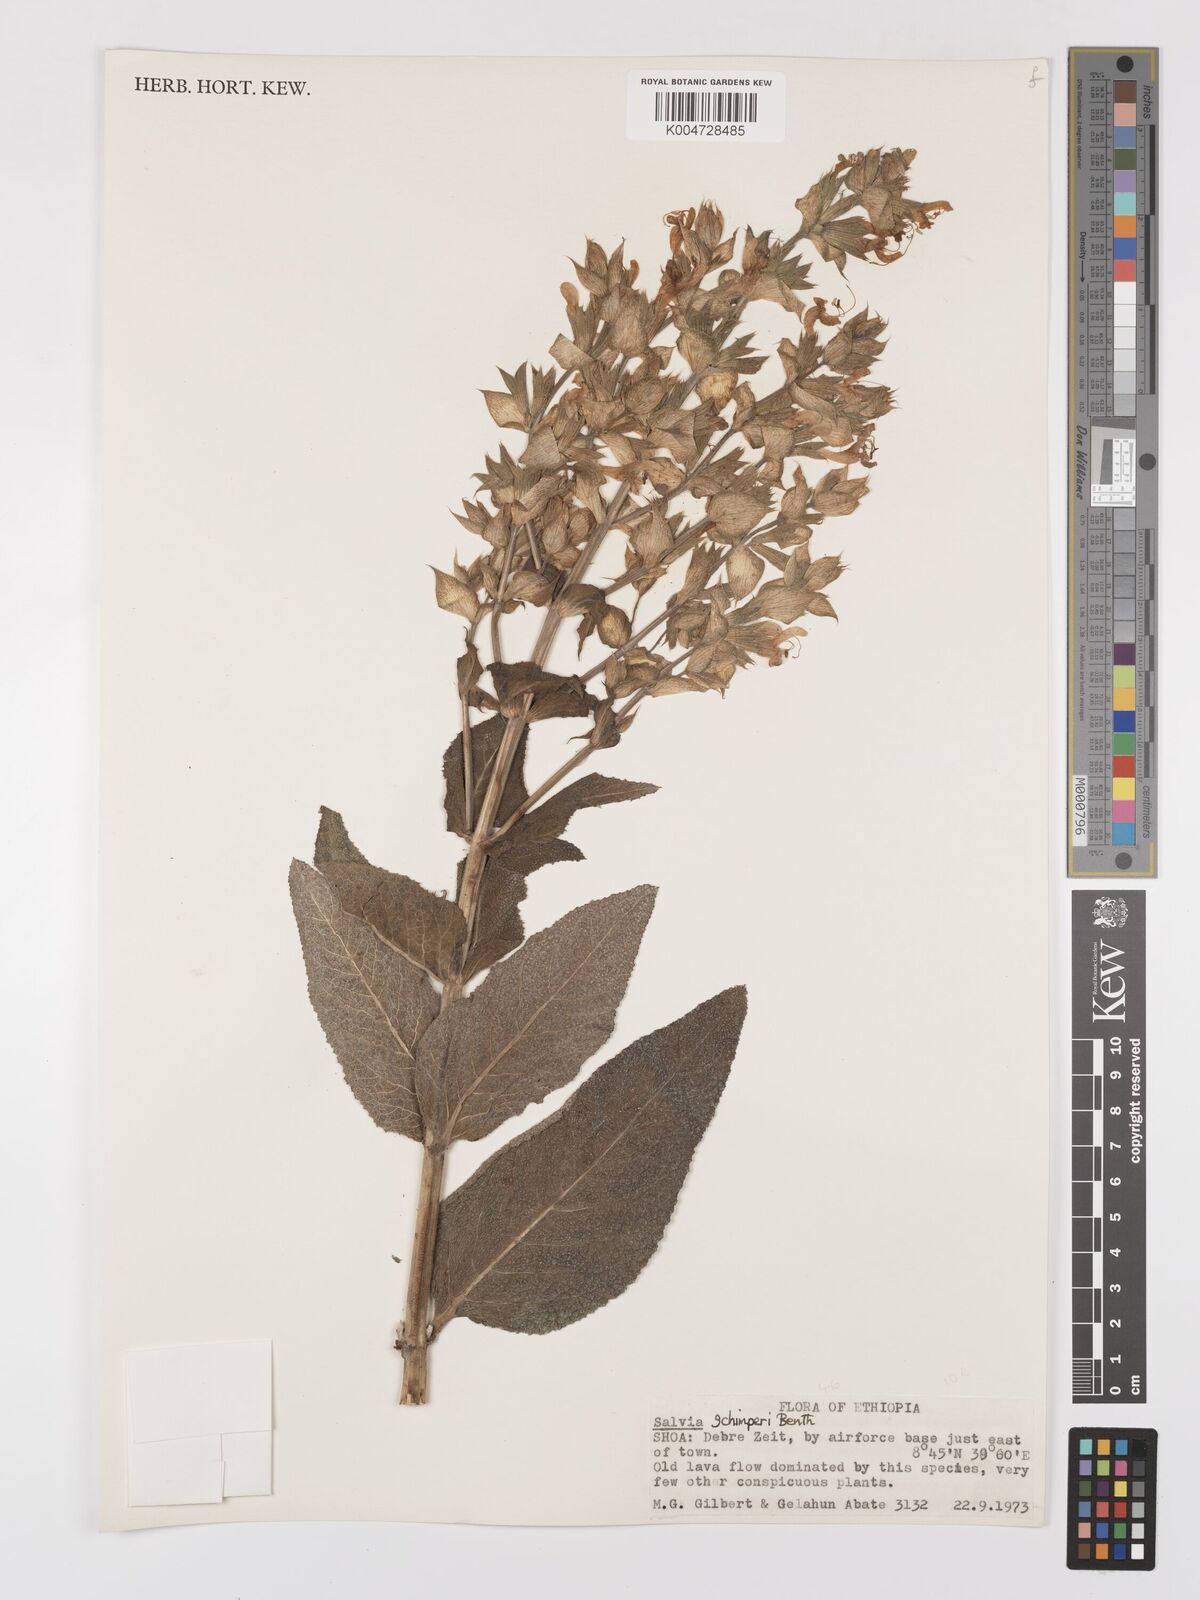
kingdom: Plantae
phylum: Tracheophyta
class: Magnoliopsida
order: Lamiales
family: Lamiaceae
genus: Salvia
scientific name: Salvia schimperi
